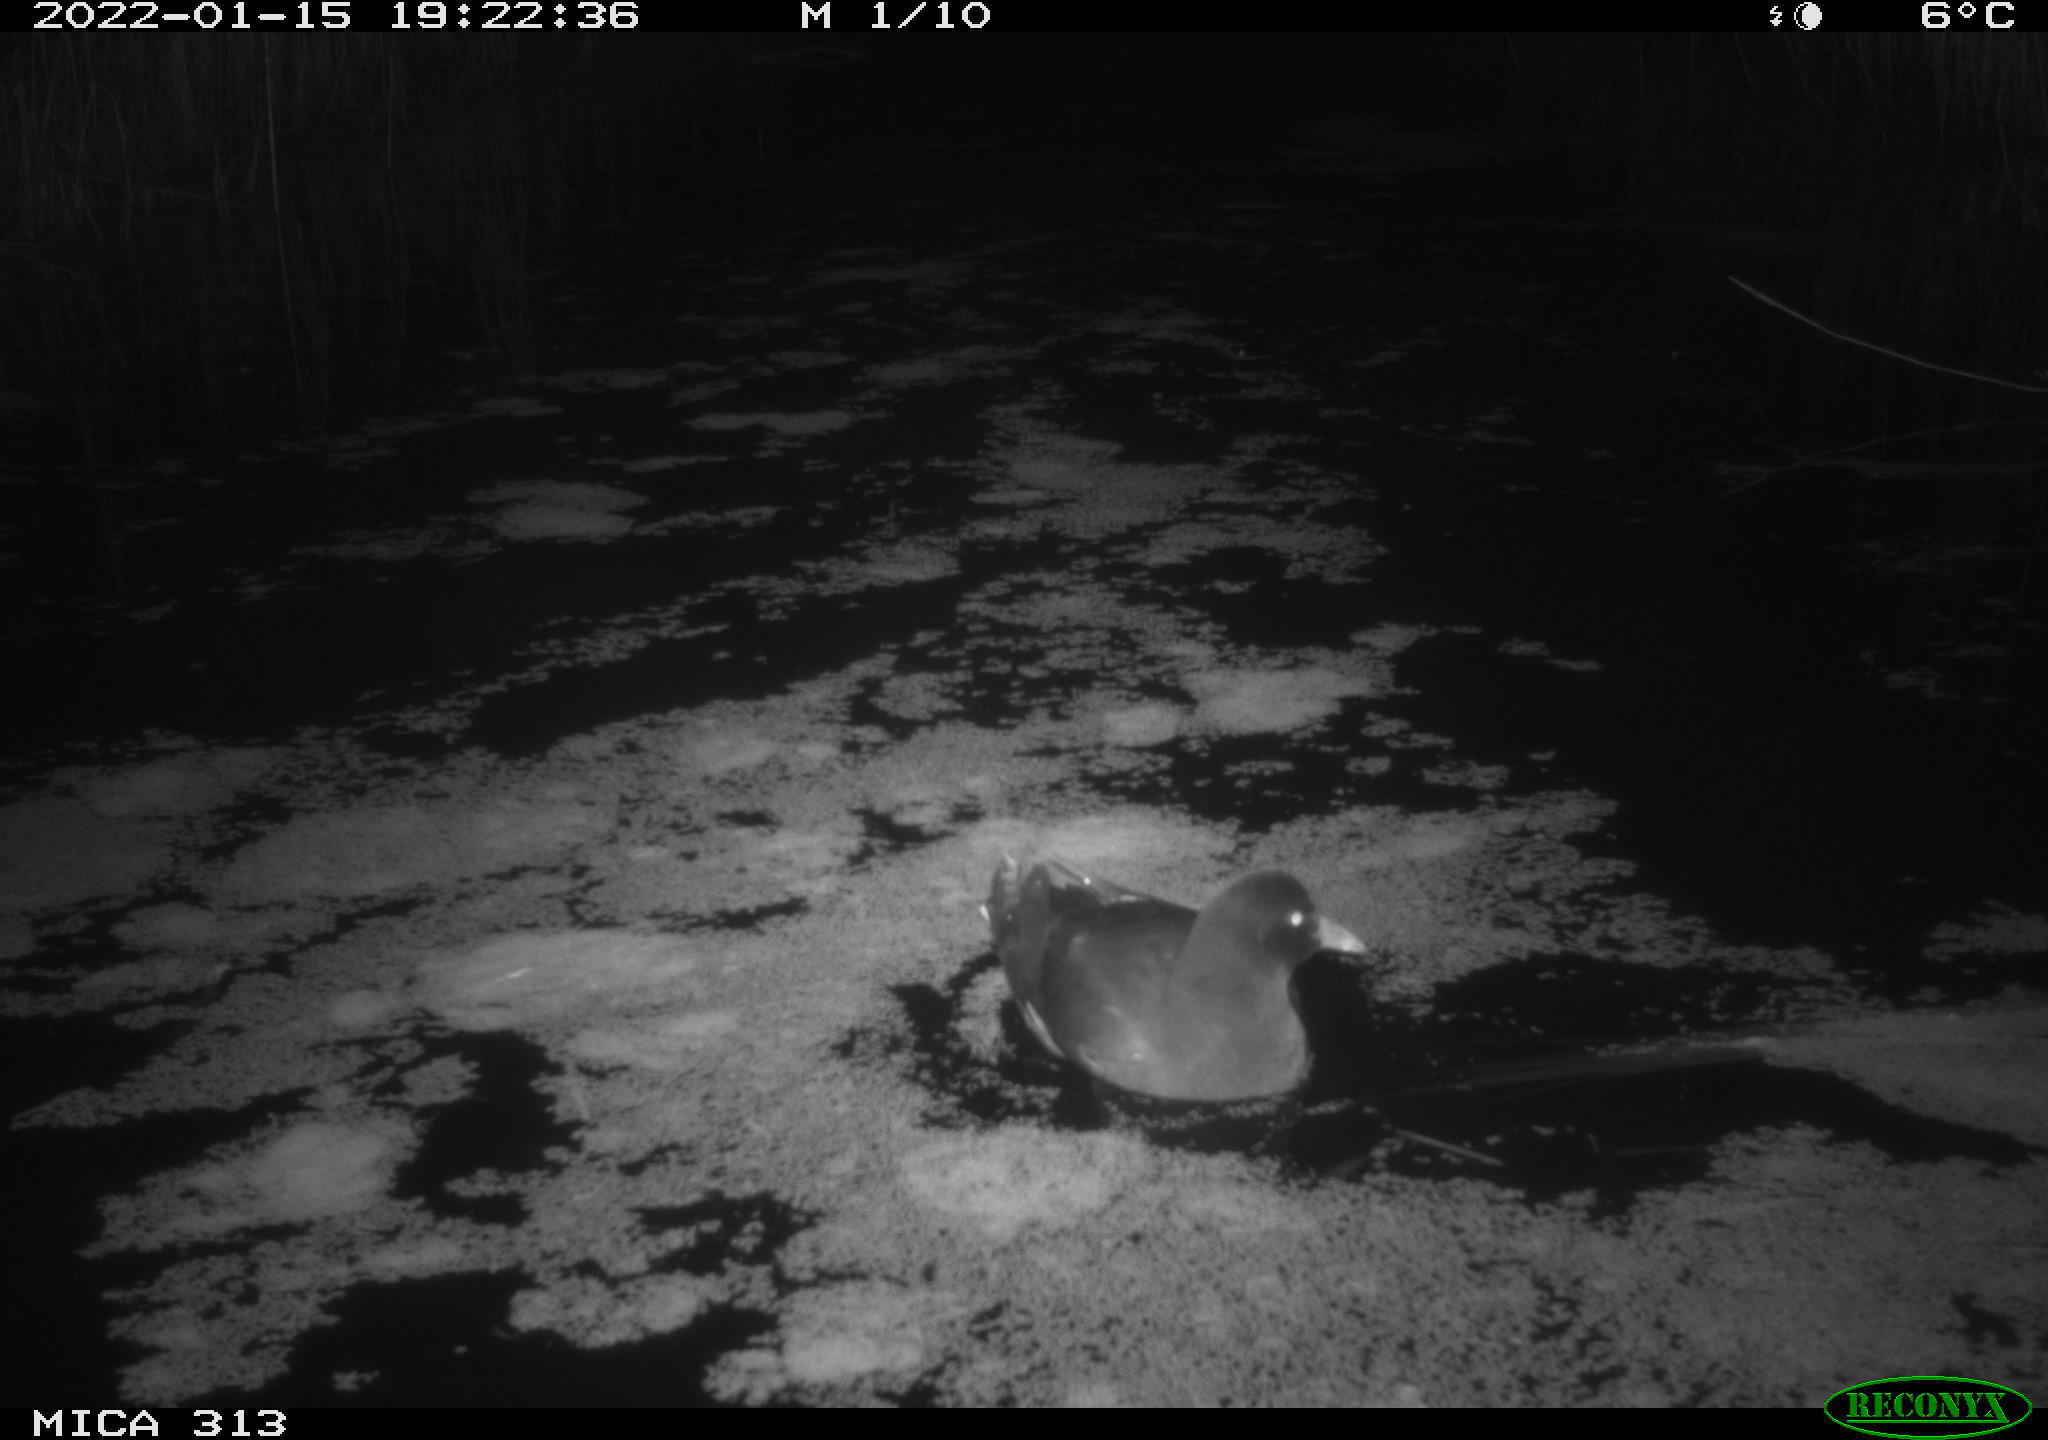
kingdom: Animalia
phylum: Chordata
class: Aves
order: Gruiformes
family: Rallidae
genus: Fulica
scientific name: Fulica atra
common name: Eurasian coot
